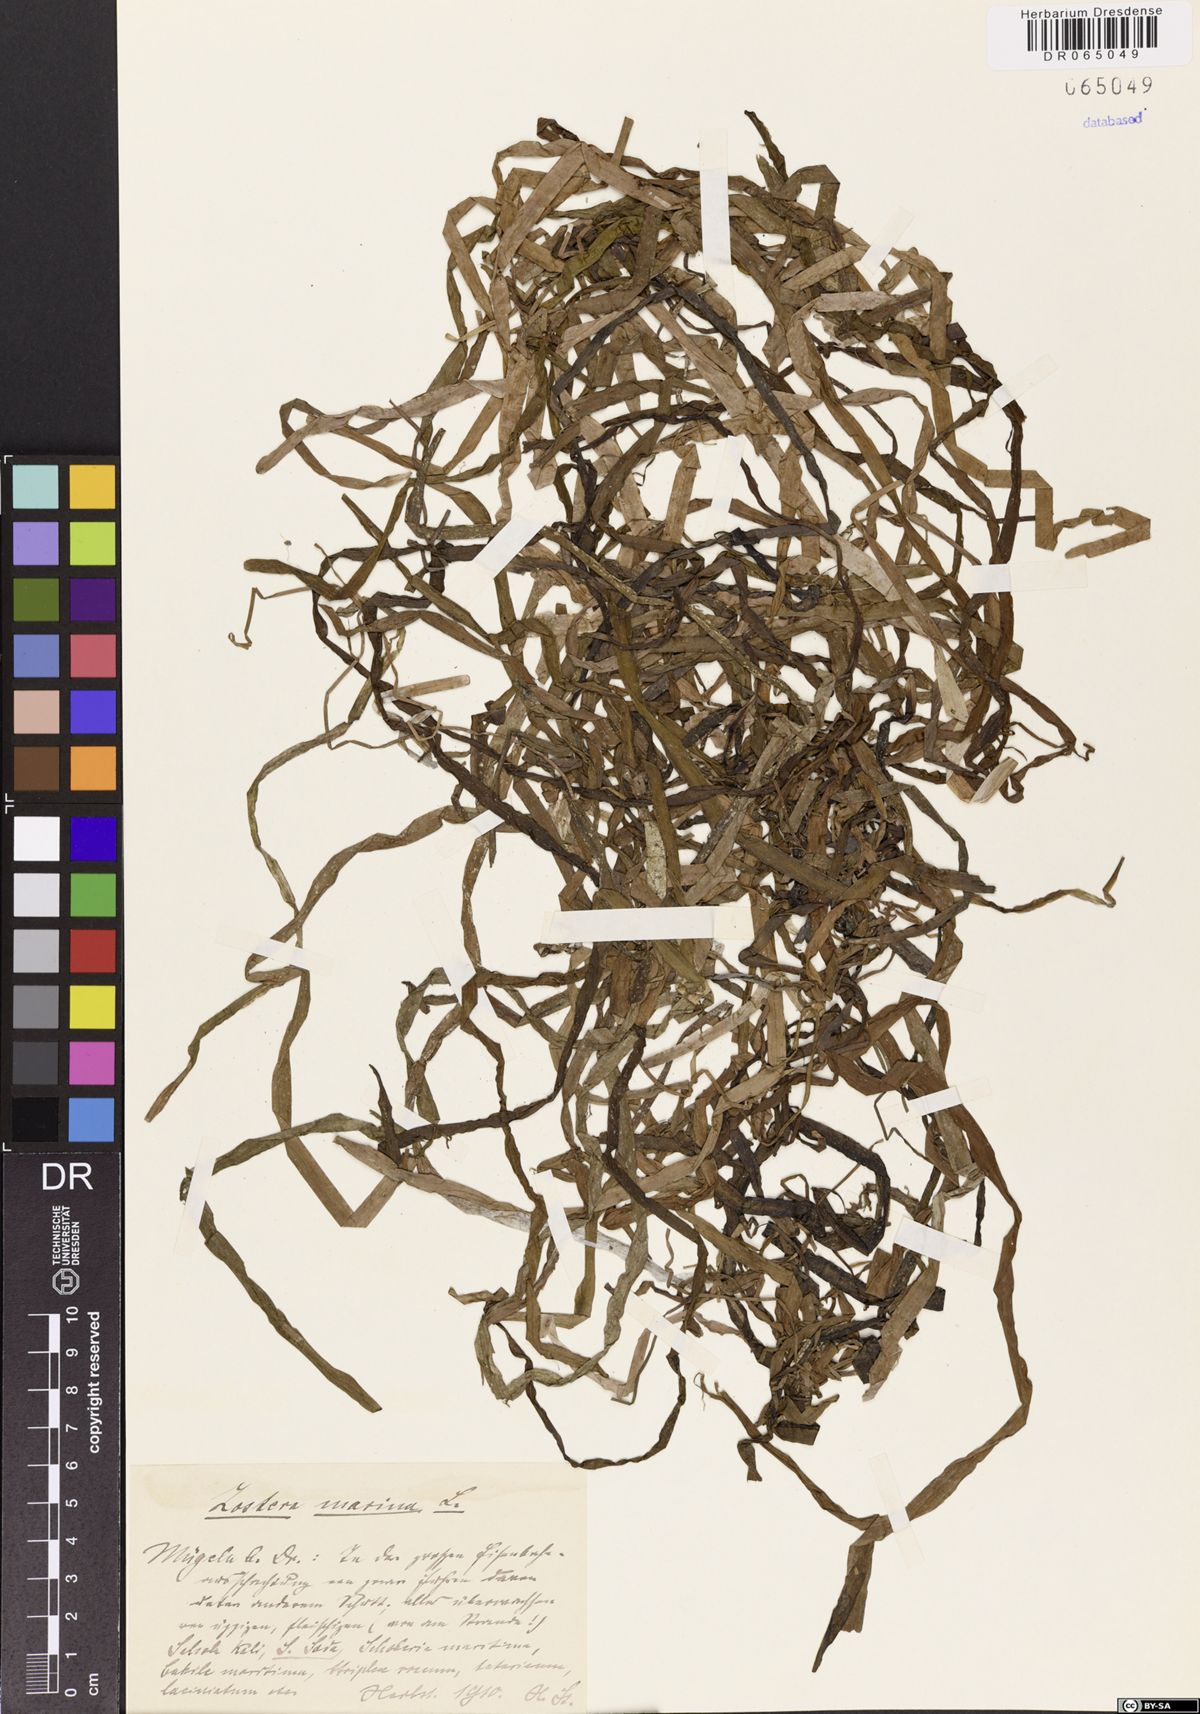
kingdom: Plantae
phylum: Tracheophyta
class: Liliopsida
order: Alismatales
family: Zosteraceae
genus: Zostera
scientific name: Zostera marina
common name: Eelgrass
